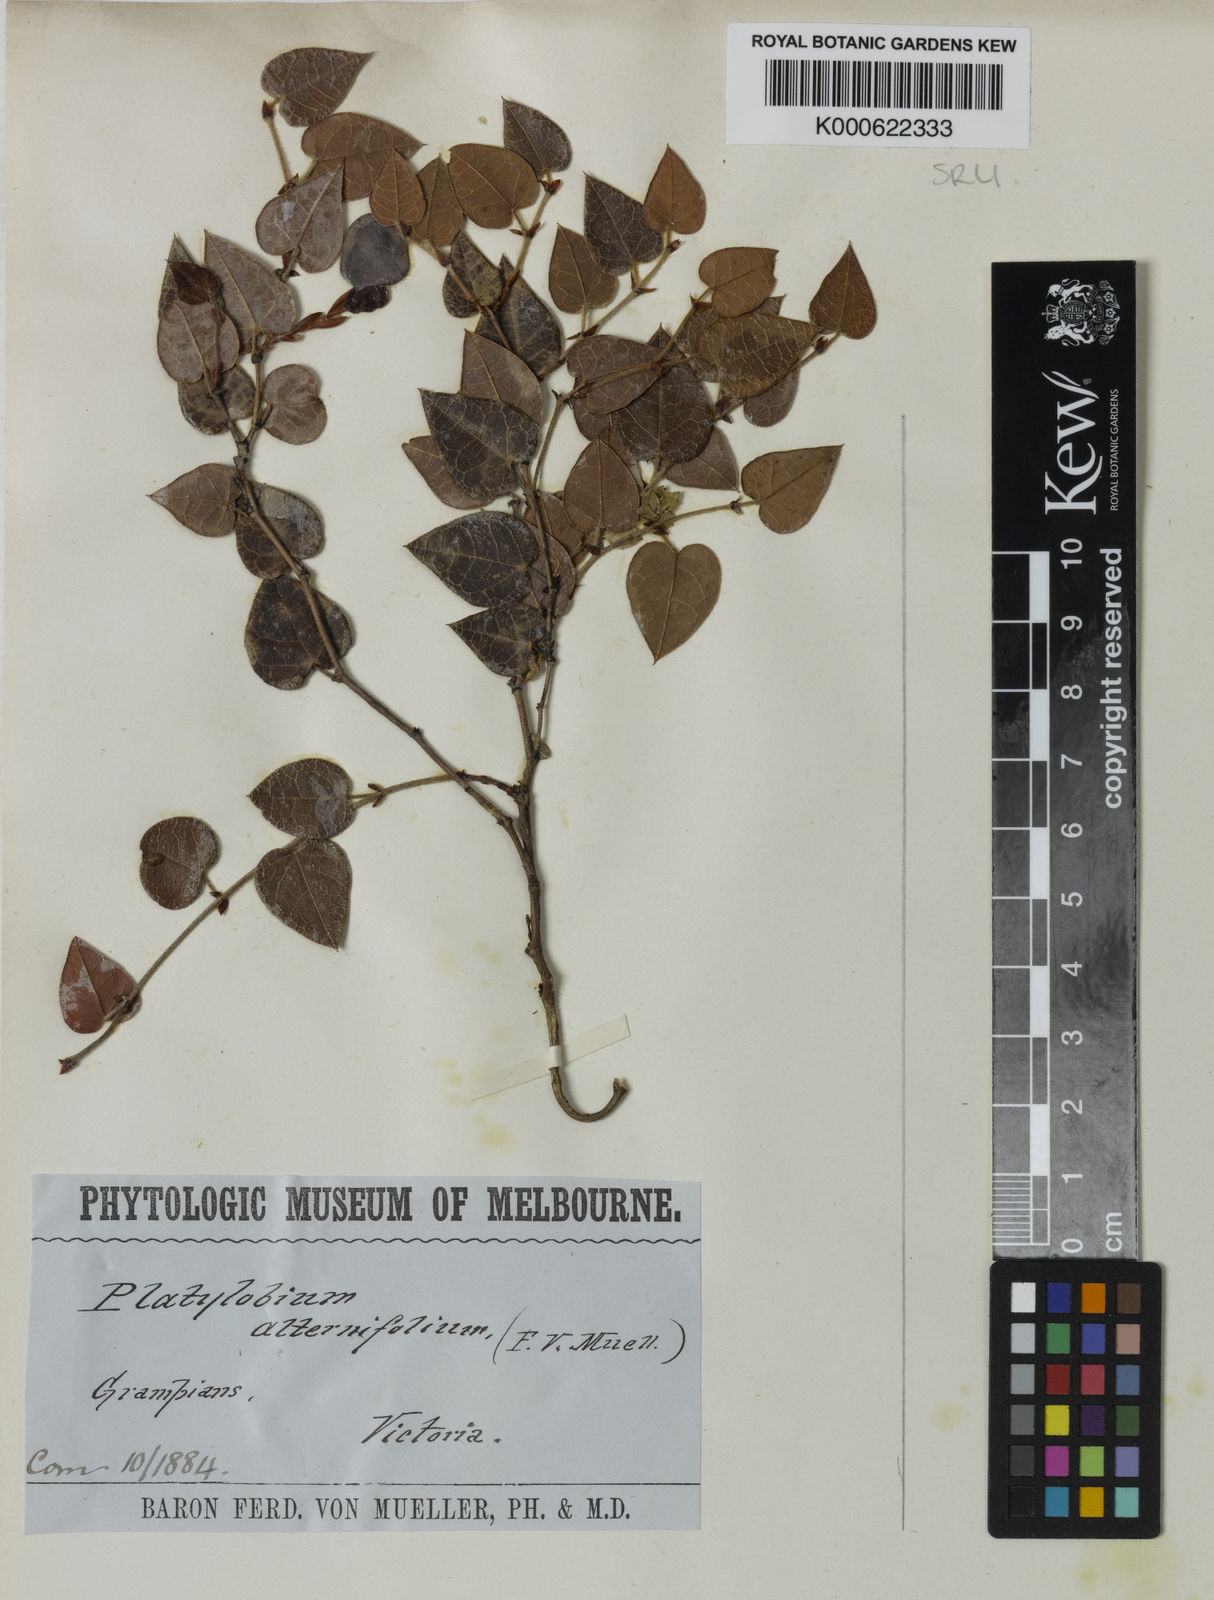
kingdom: Plantae
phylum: Tracheophyta
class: Magnoliopsida
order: Fabales
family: Fabaceae
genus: Platylobium
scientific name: Platylobium alternifolium
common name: Victorian flat-pea
